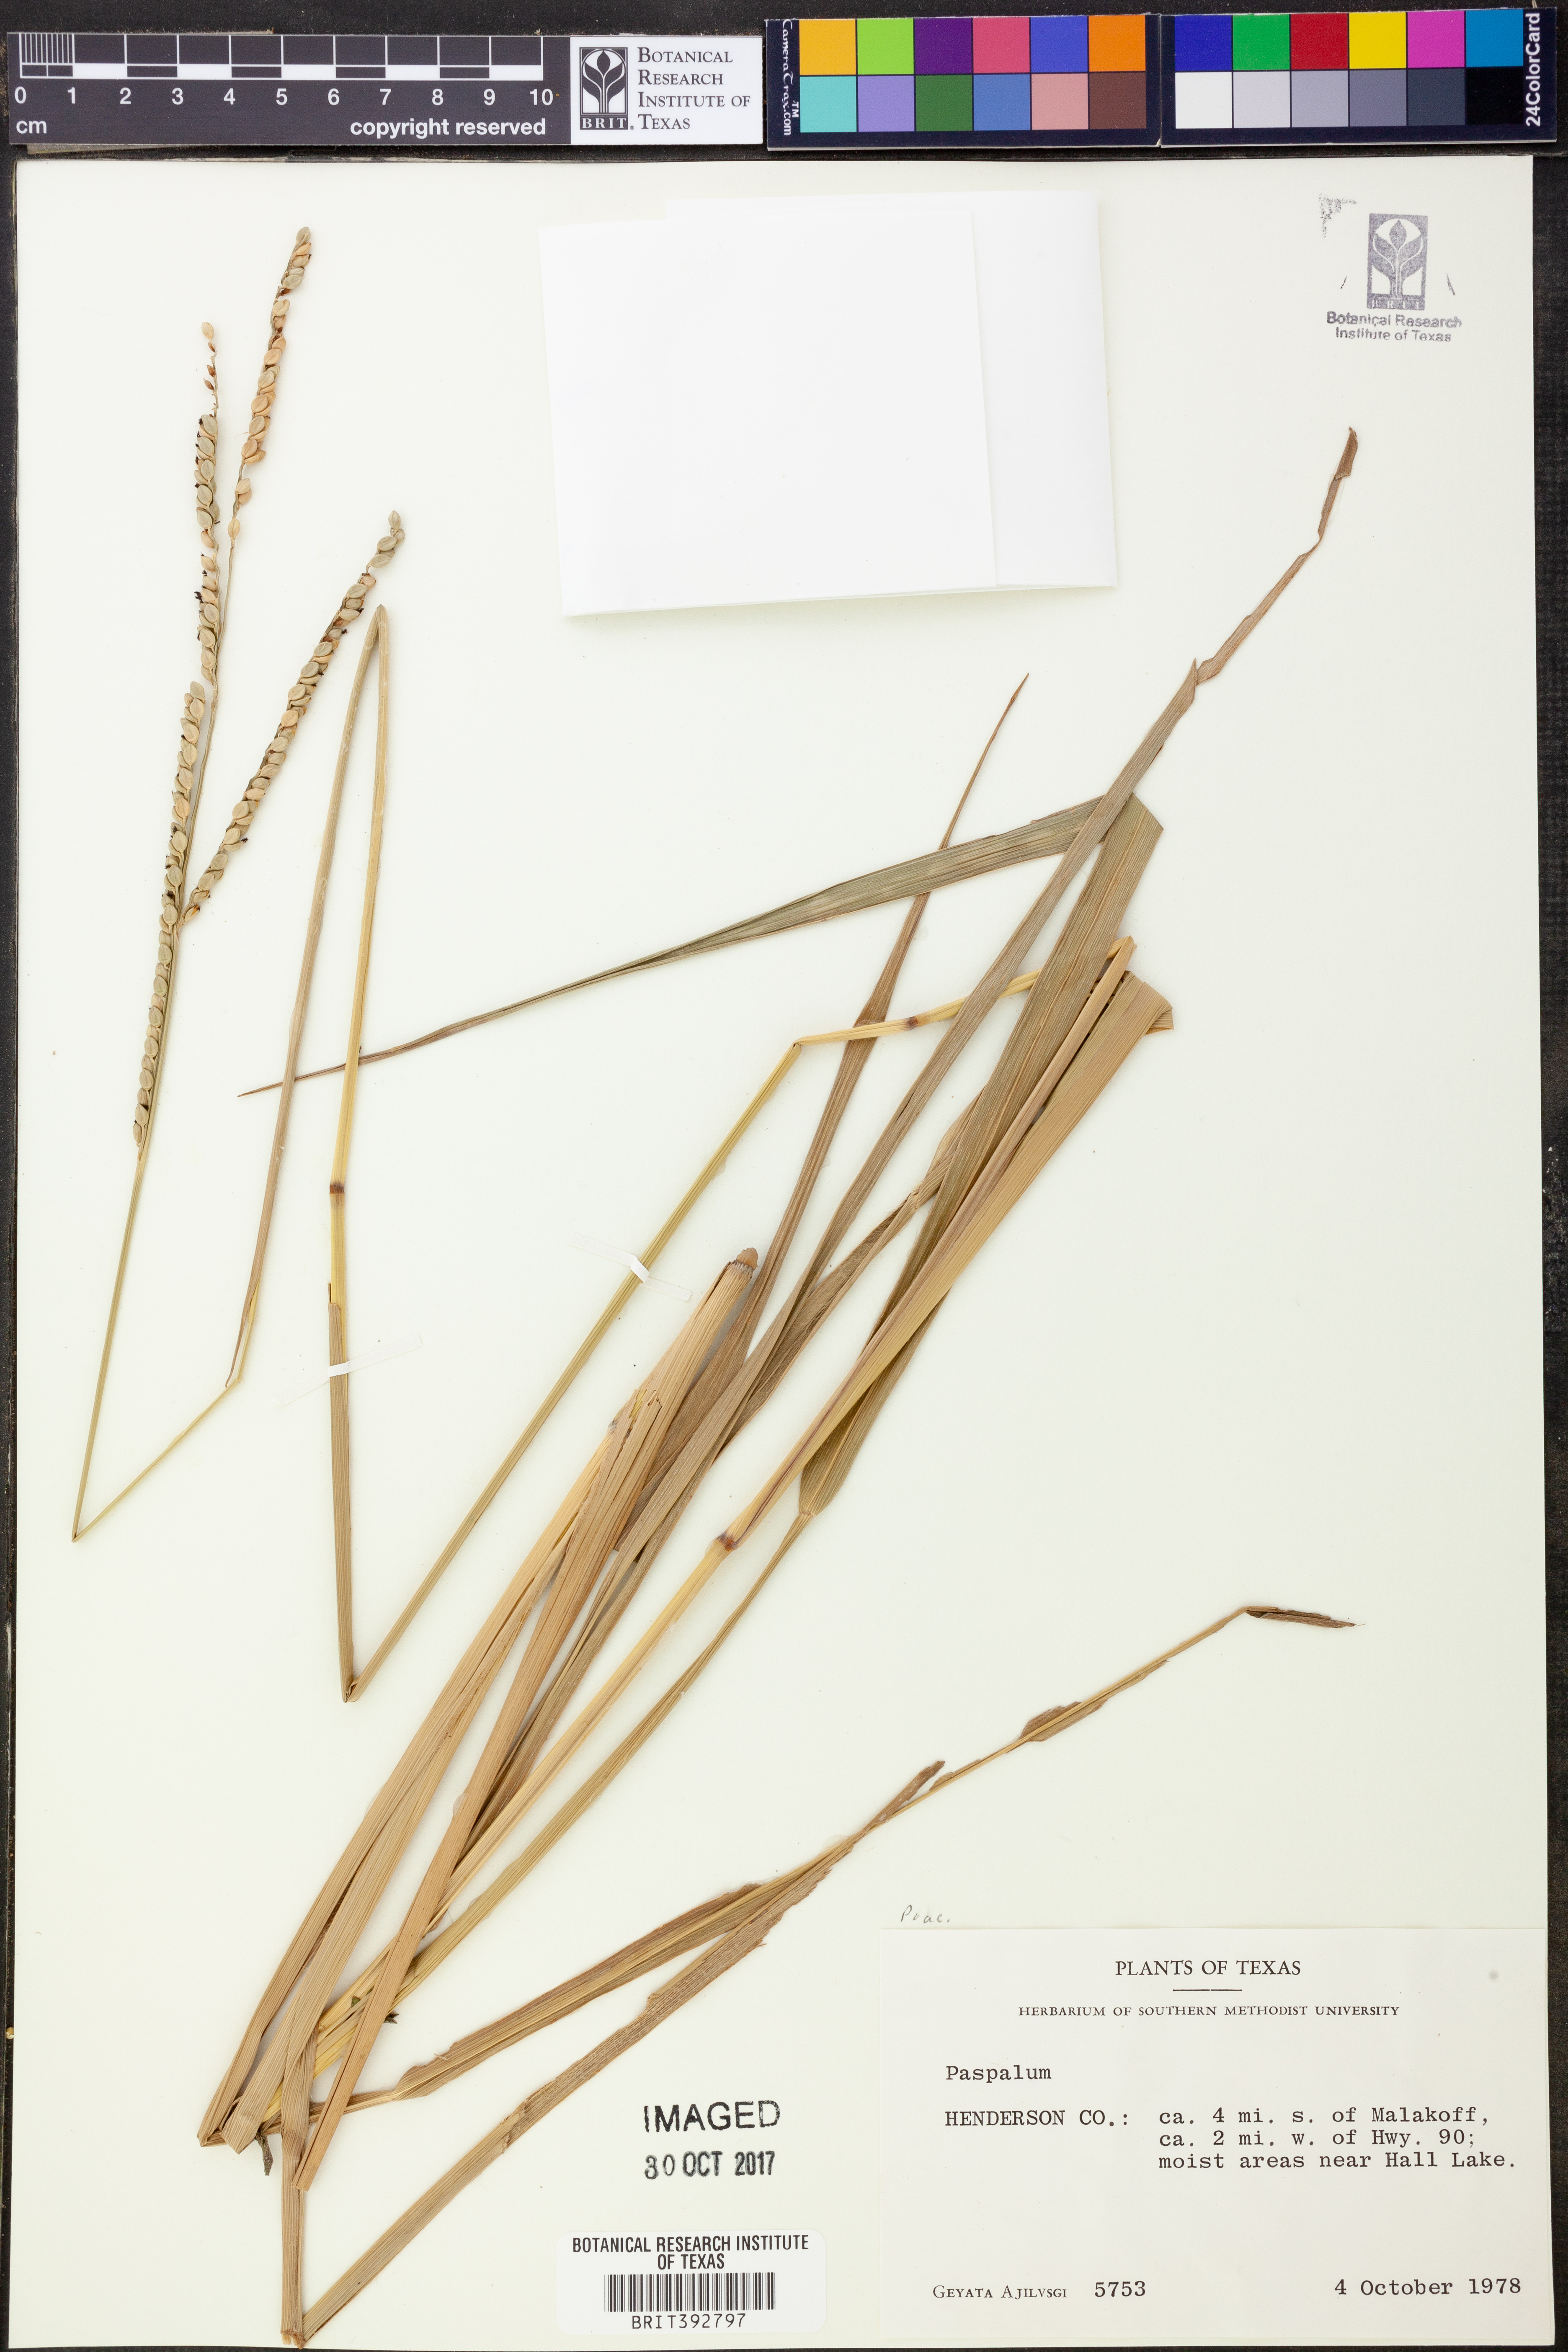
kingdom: Plantae
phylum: Tracheophyta
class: Liliopsida
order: Poales
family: Poaceae
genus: Paspalum
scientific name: Paspalum
